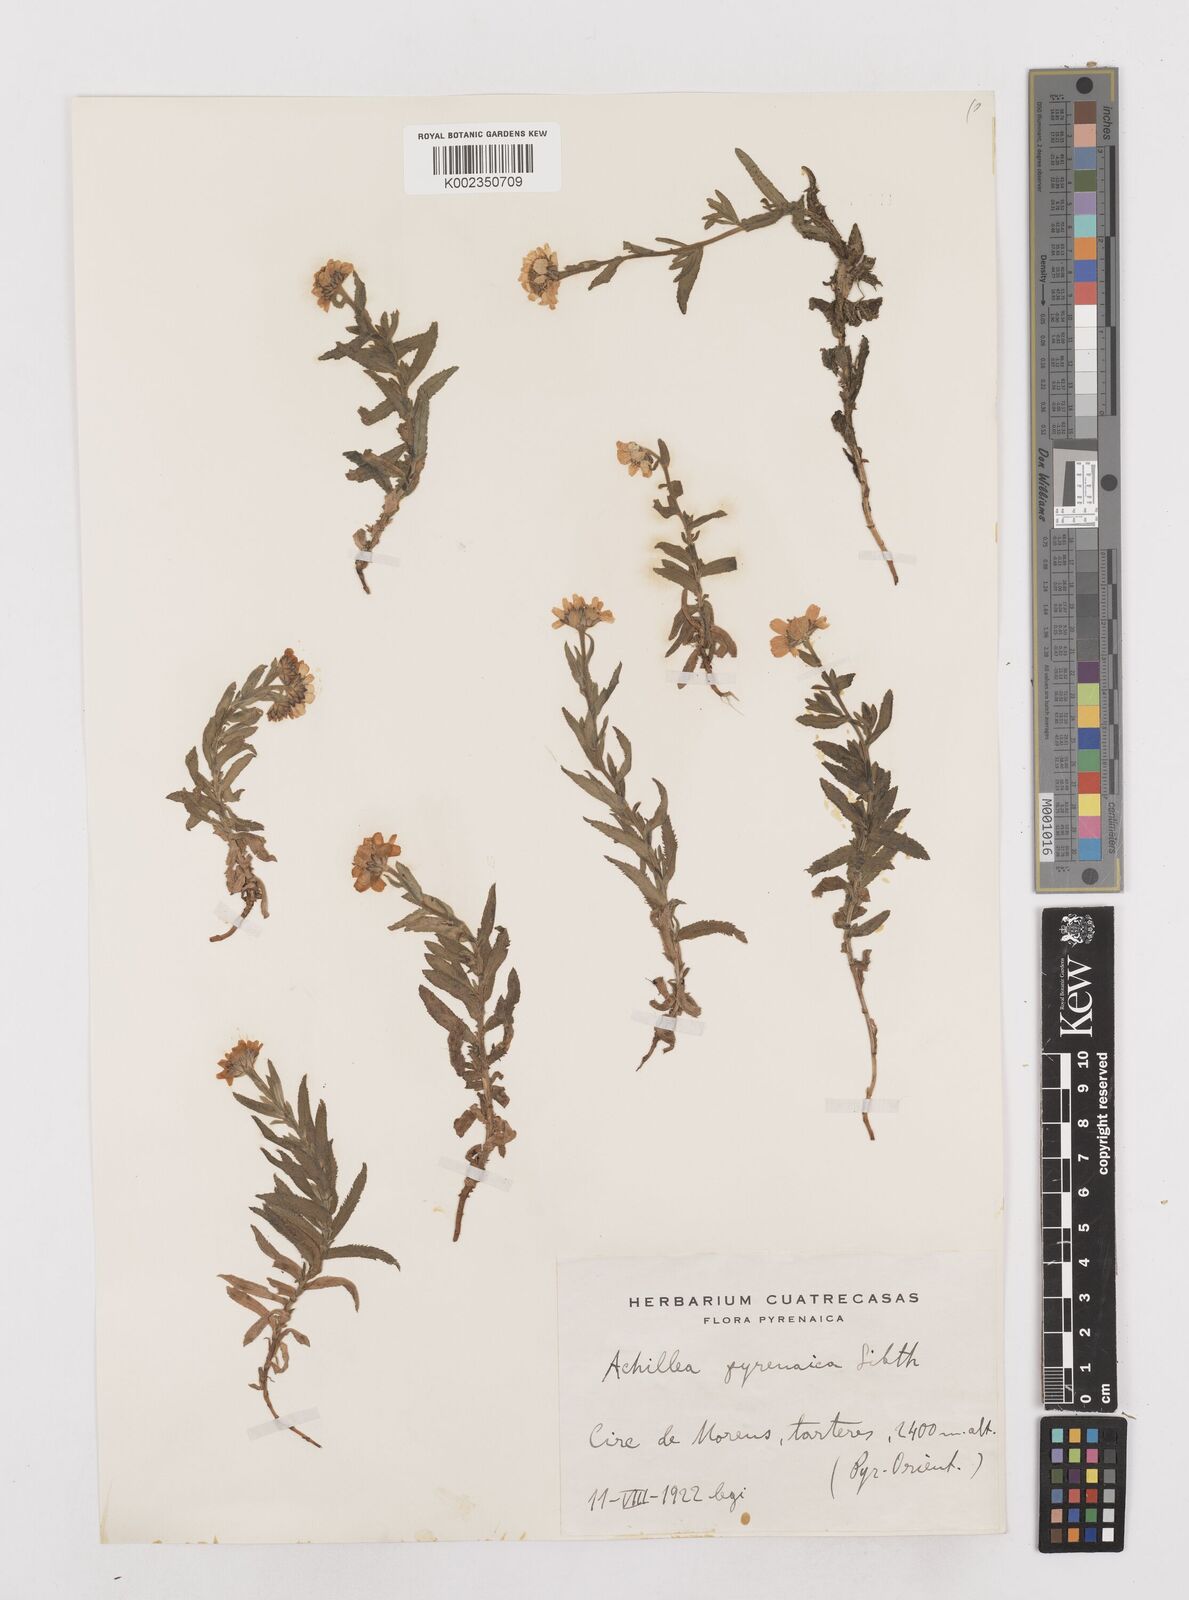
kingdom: Plantae
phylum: Tracheophyta
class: Magnoliopsida
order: Asterales
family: Asteraceae
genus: Achillea
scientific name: Achillea pyrenaica
